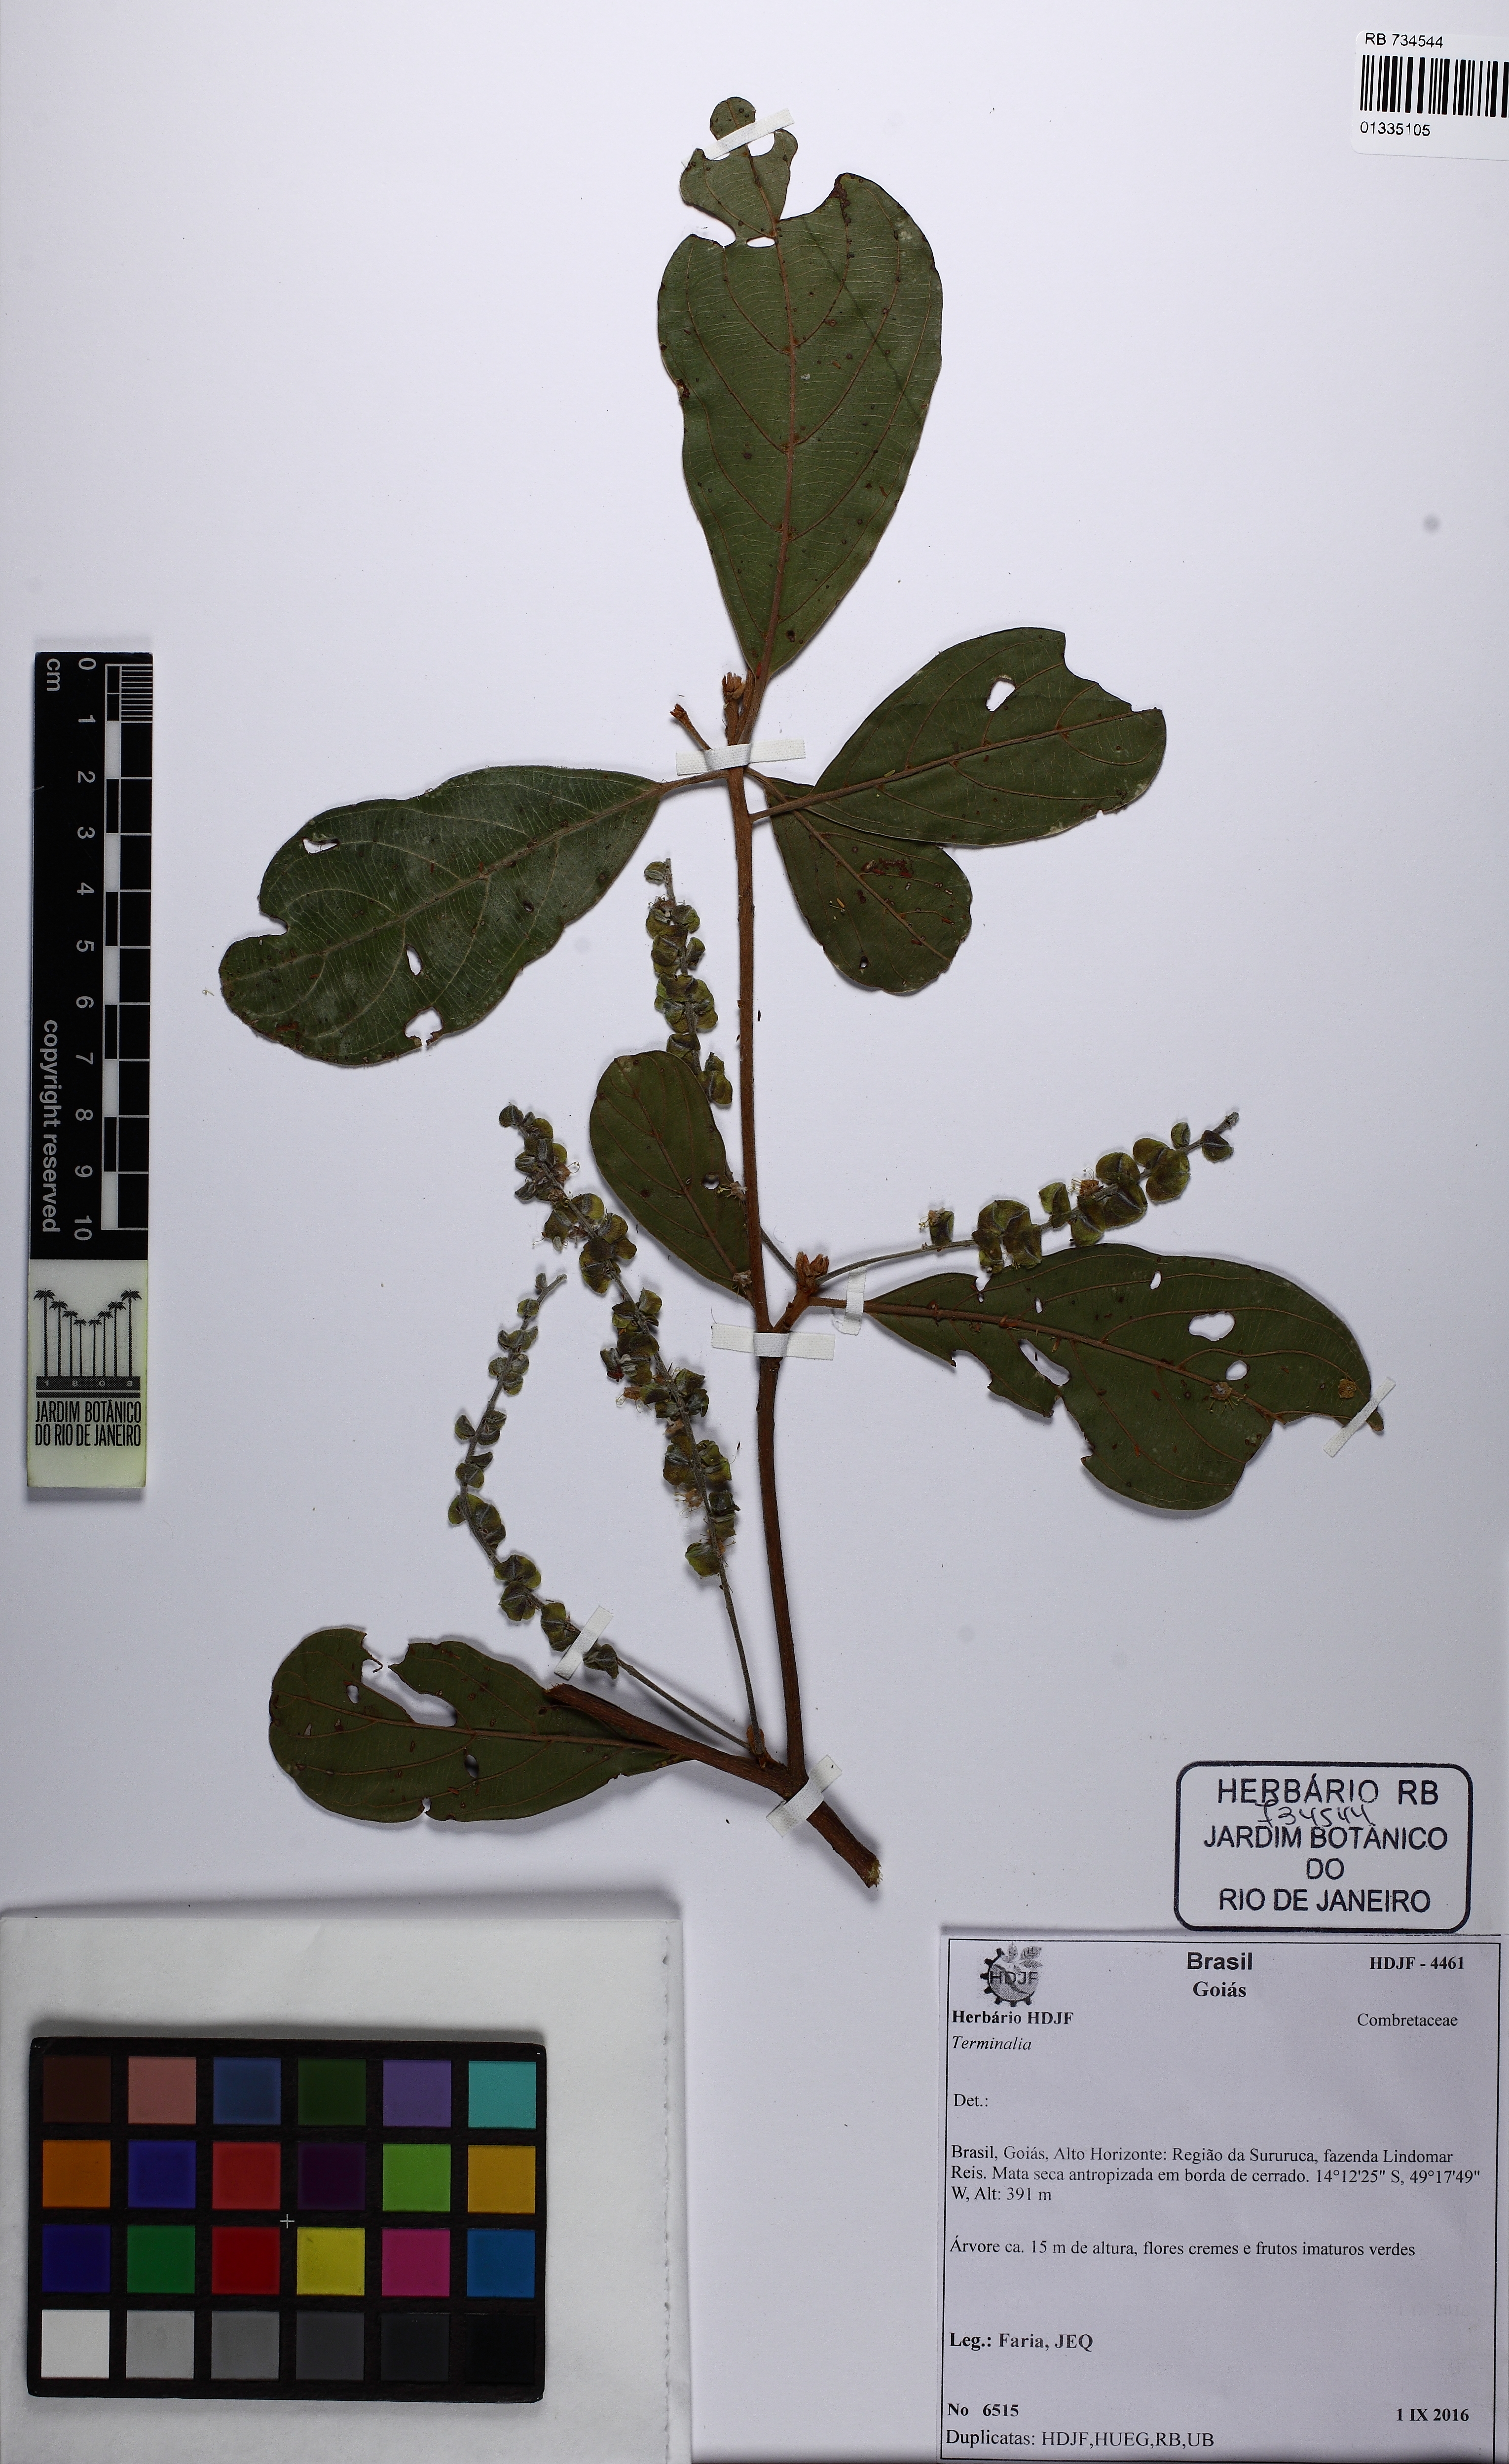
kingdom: Plantae
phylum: Tracheophyta
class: Magnoliopsida
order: Myrtales
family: Combretaceae
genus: Terminalia
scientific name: Terminalia
